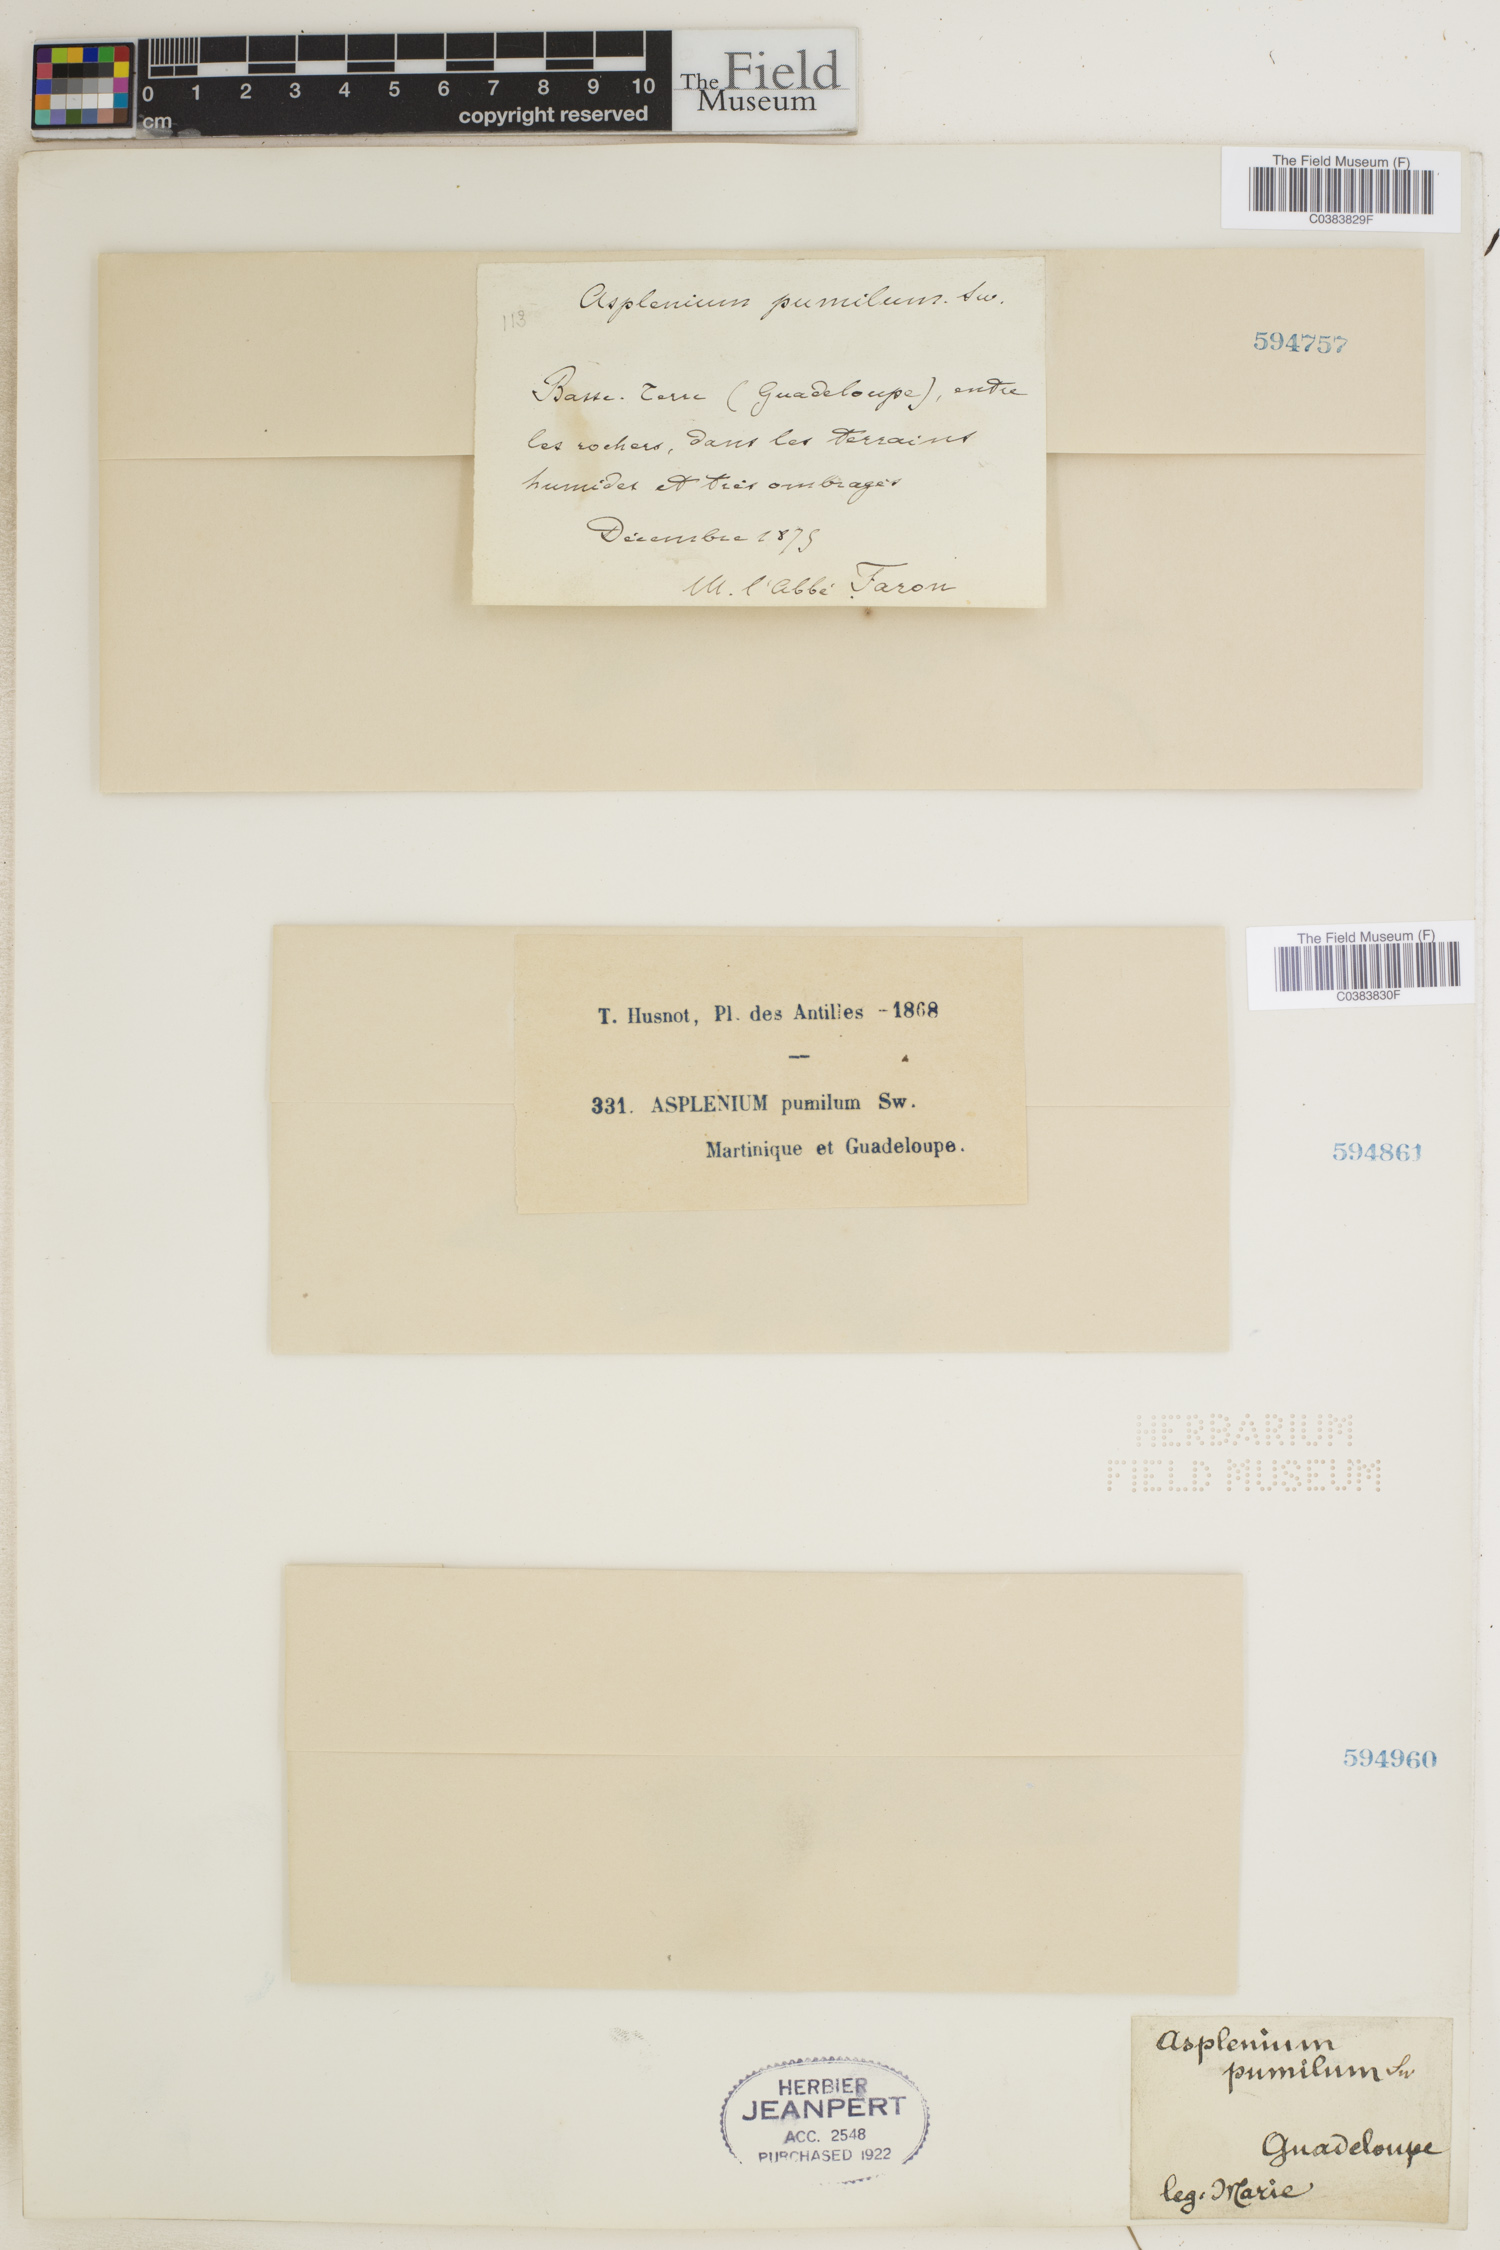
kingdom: Plantae
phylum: Tracheophyta
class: Polypodiopsida
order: Polypodiales
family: Aspleniaceae
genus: Asplenium
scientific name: Asplenium pumilum
